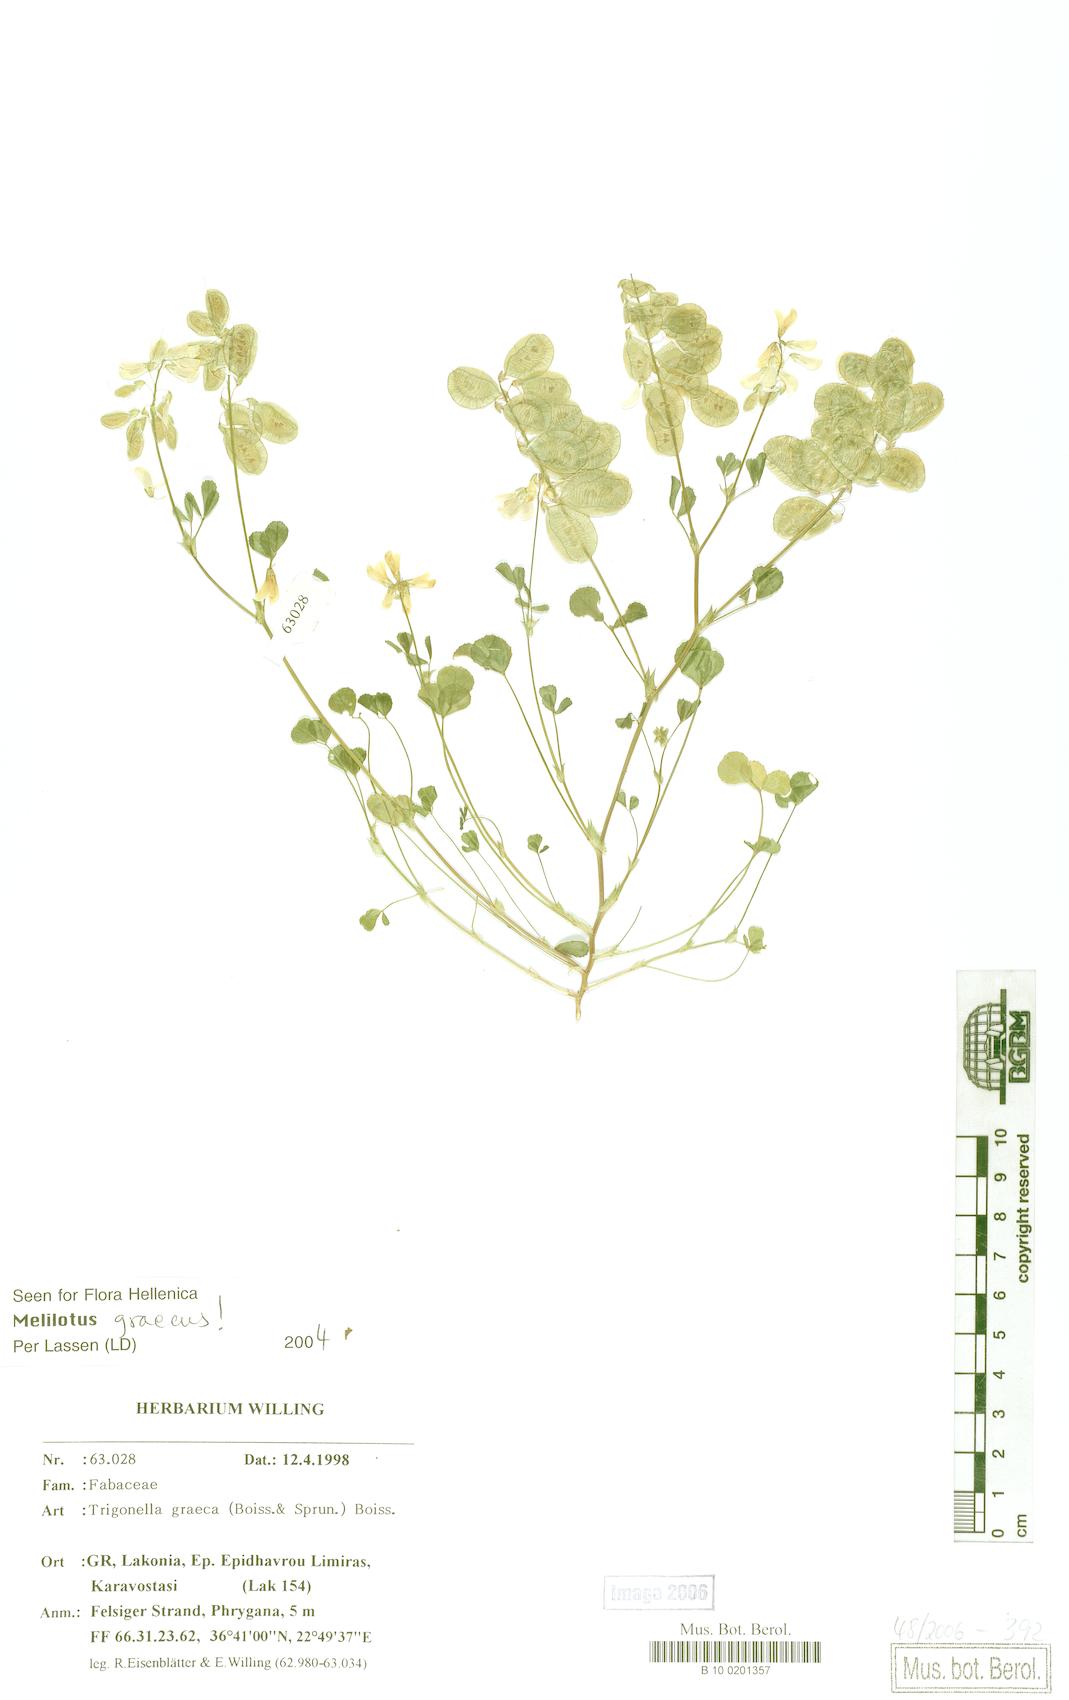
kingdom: Plantae
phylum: Tracheophyta
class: Magnoliopsida
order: Fabales
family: Fabaceae
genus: Trigonella
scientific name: Trigonella graeca
